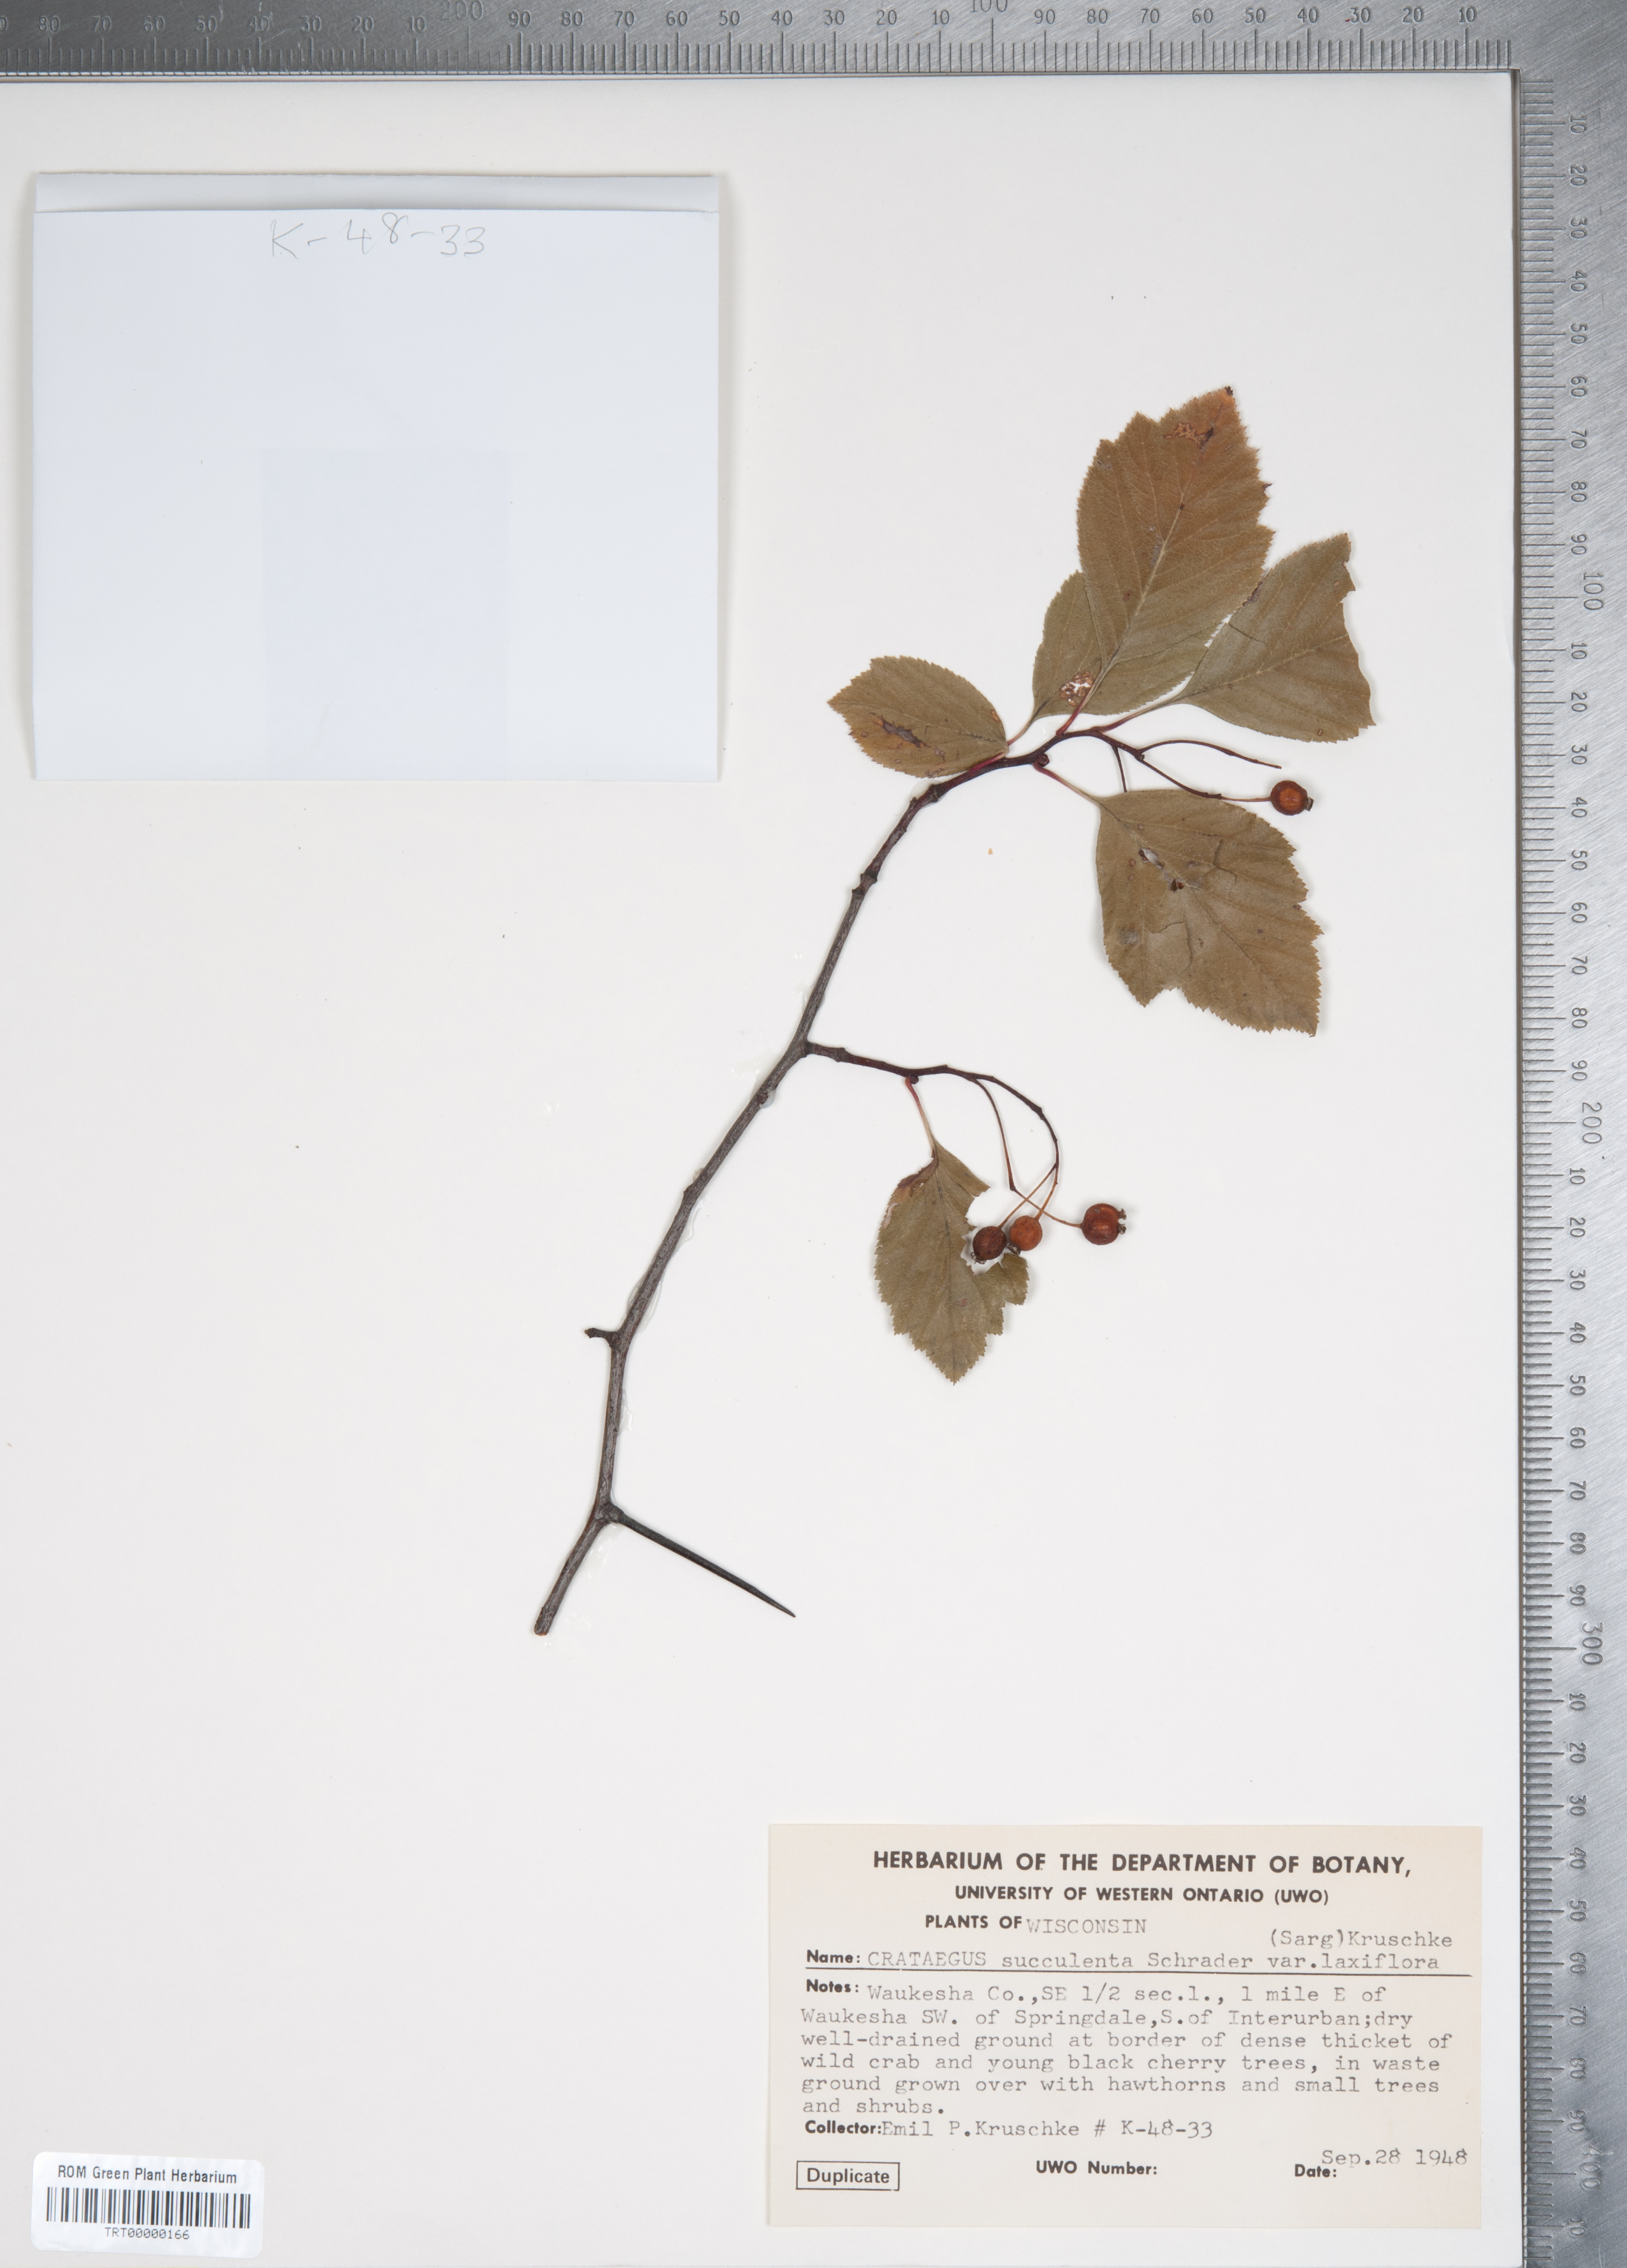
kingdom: Plantae
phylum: Tracheophyta
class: Magnoliopsida
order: Rosales
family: Rosaceae
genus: Crataegus
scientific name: Crataegus succulenta
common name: Fleshy hawthorn
